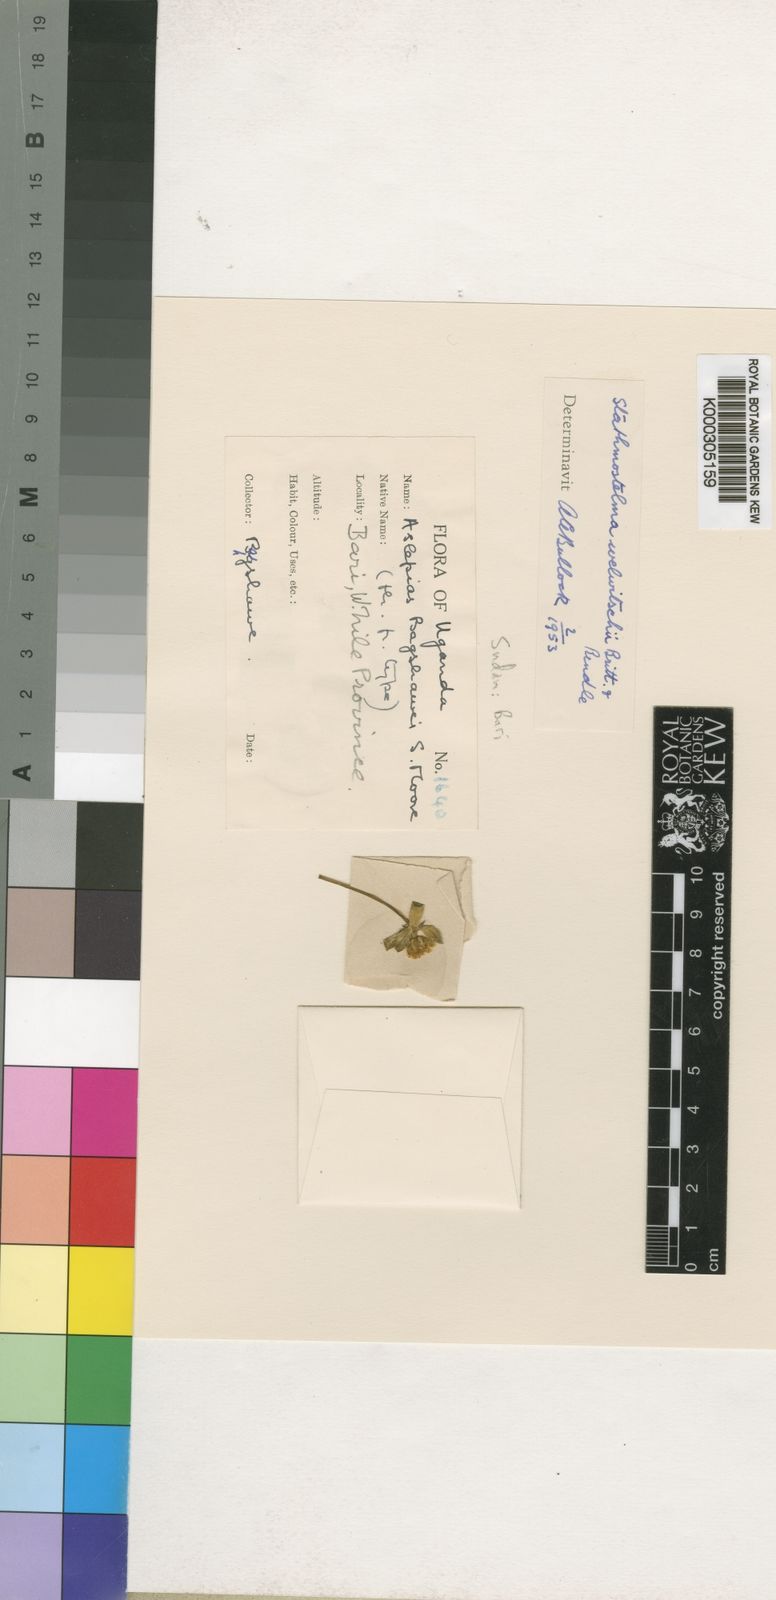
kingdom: Plantae
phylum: Tracheophyta
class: Magnoliopsida
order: Gentianales
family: Apocynaceae
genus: Stathmostelma
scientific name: Stathmostelma welwitschii
